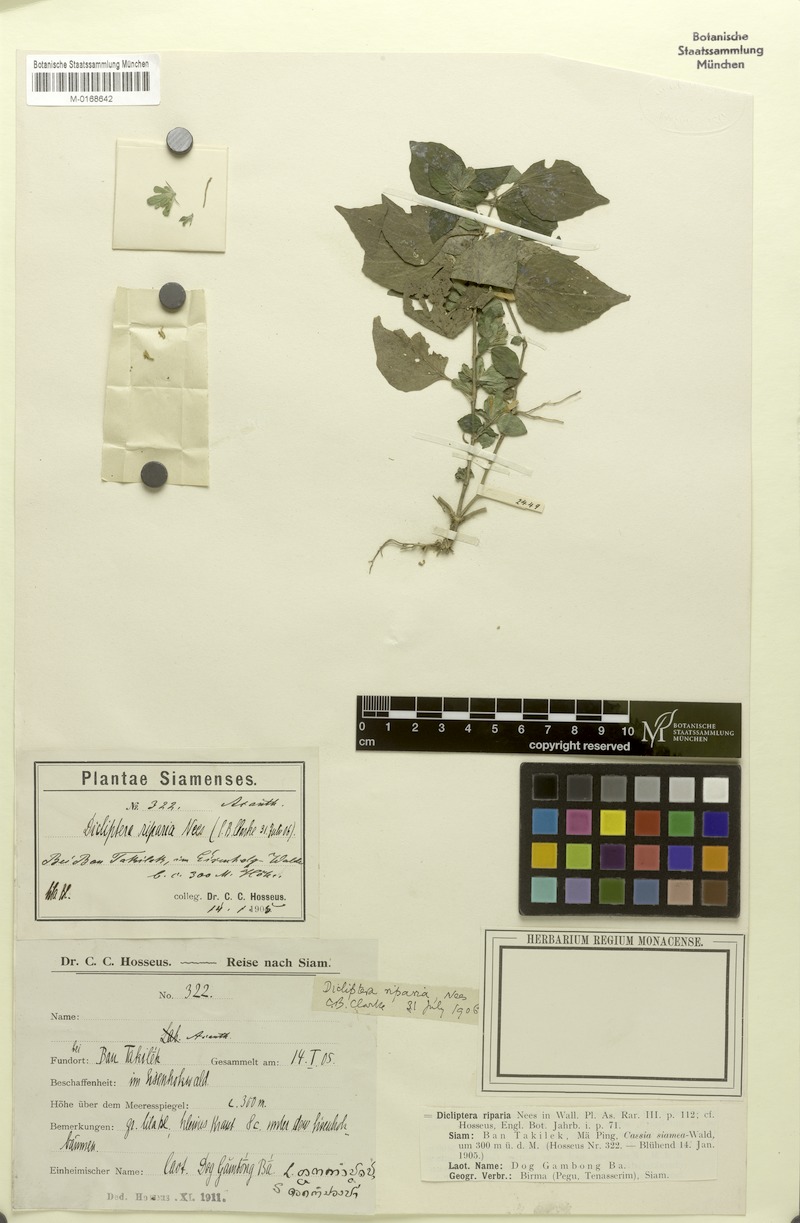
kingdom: Plantae
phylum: Tracheophyta
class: Magnoliopsida
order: Lamiales
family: Acanthaceae
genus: Dicliptera
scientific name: Dicliptera riparia
